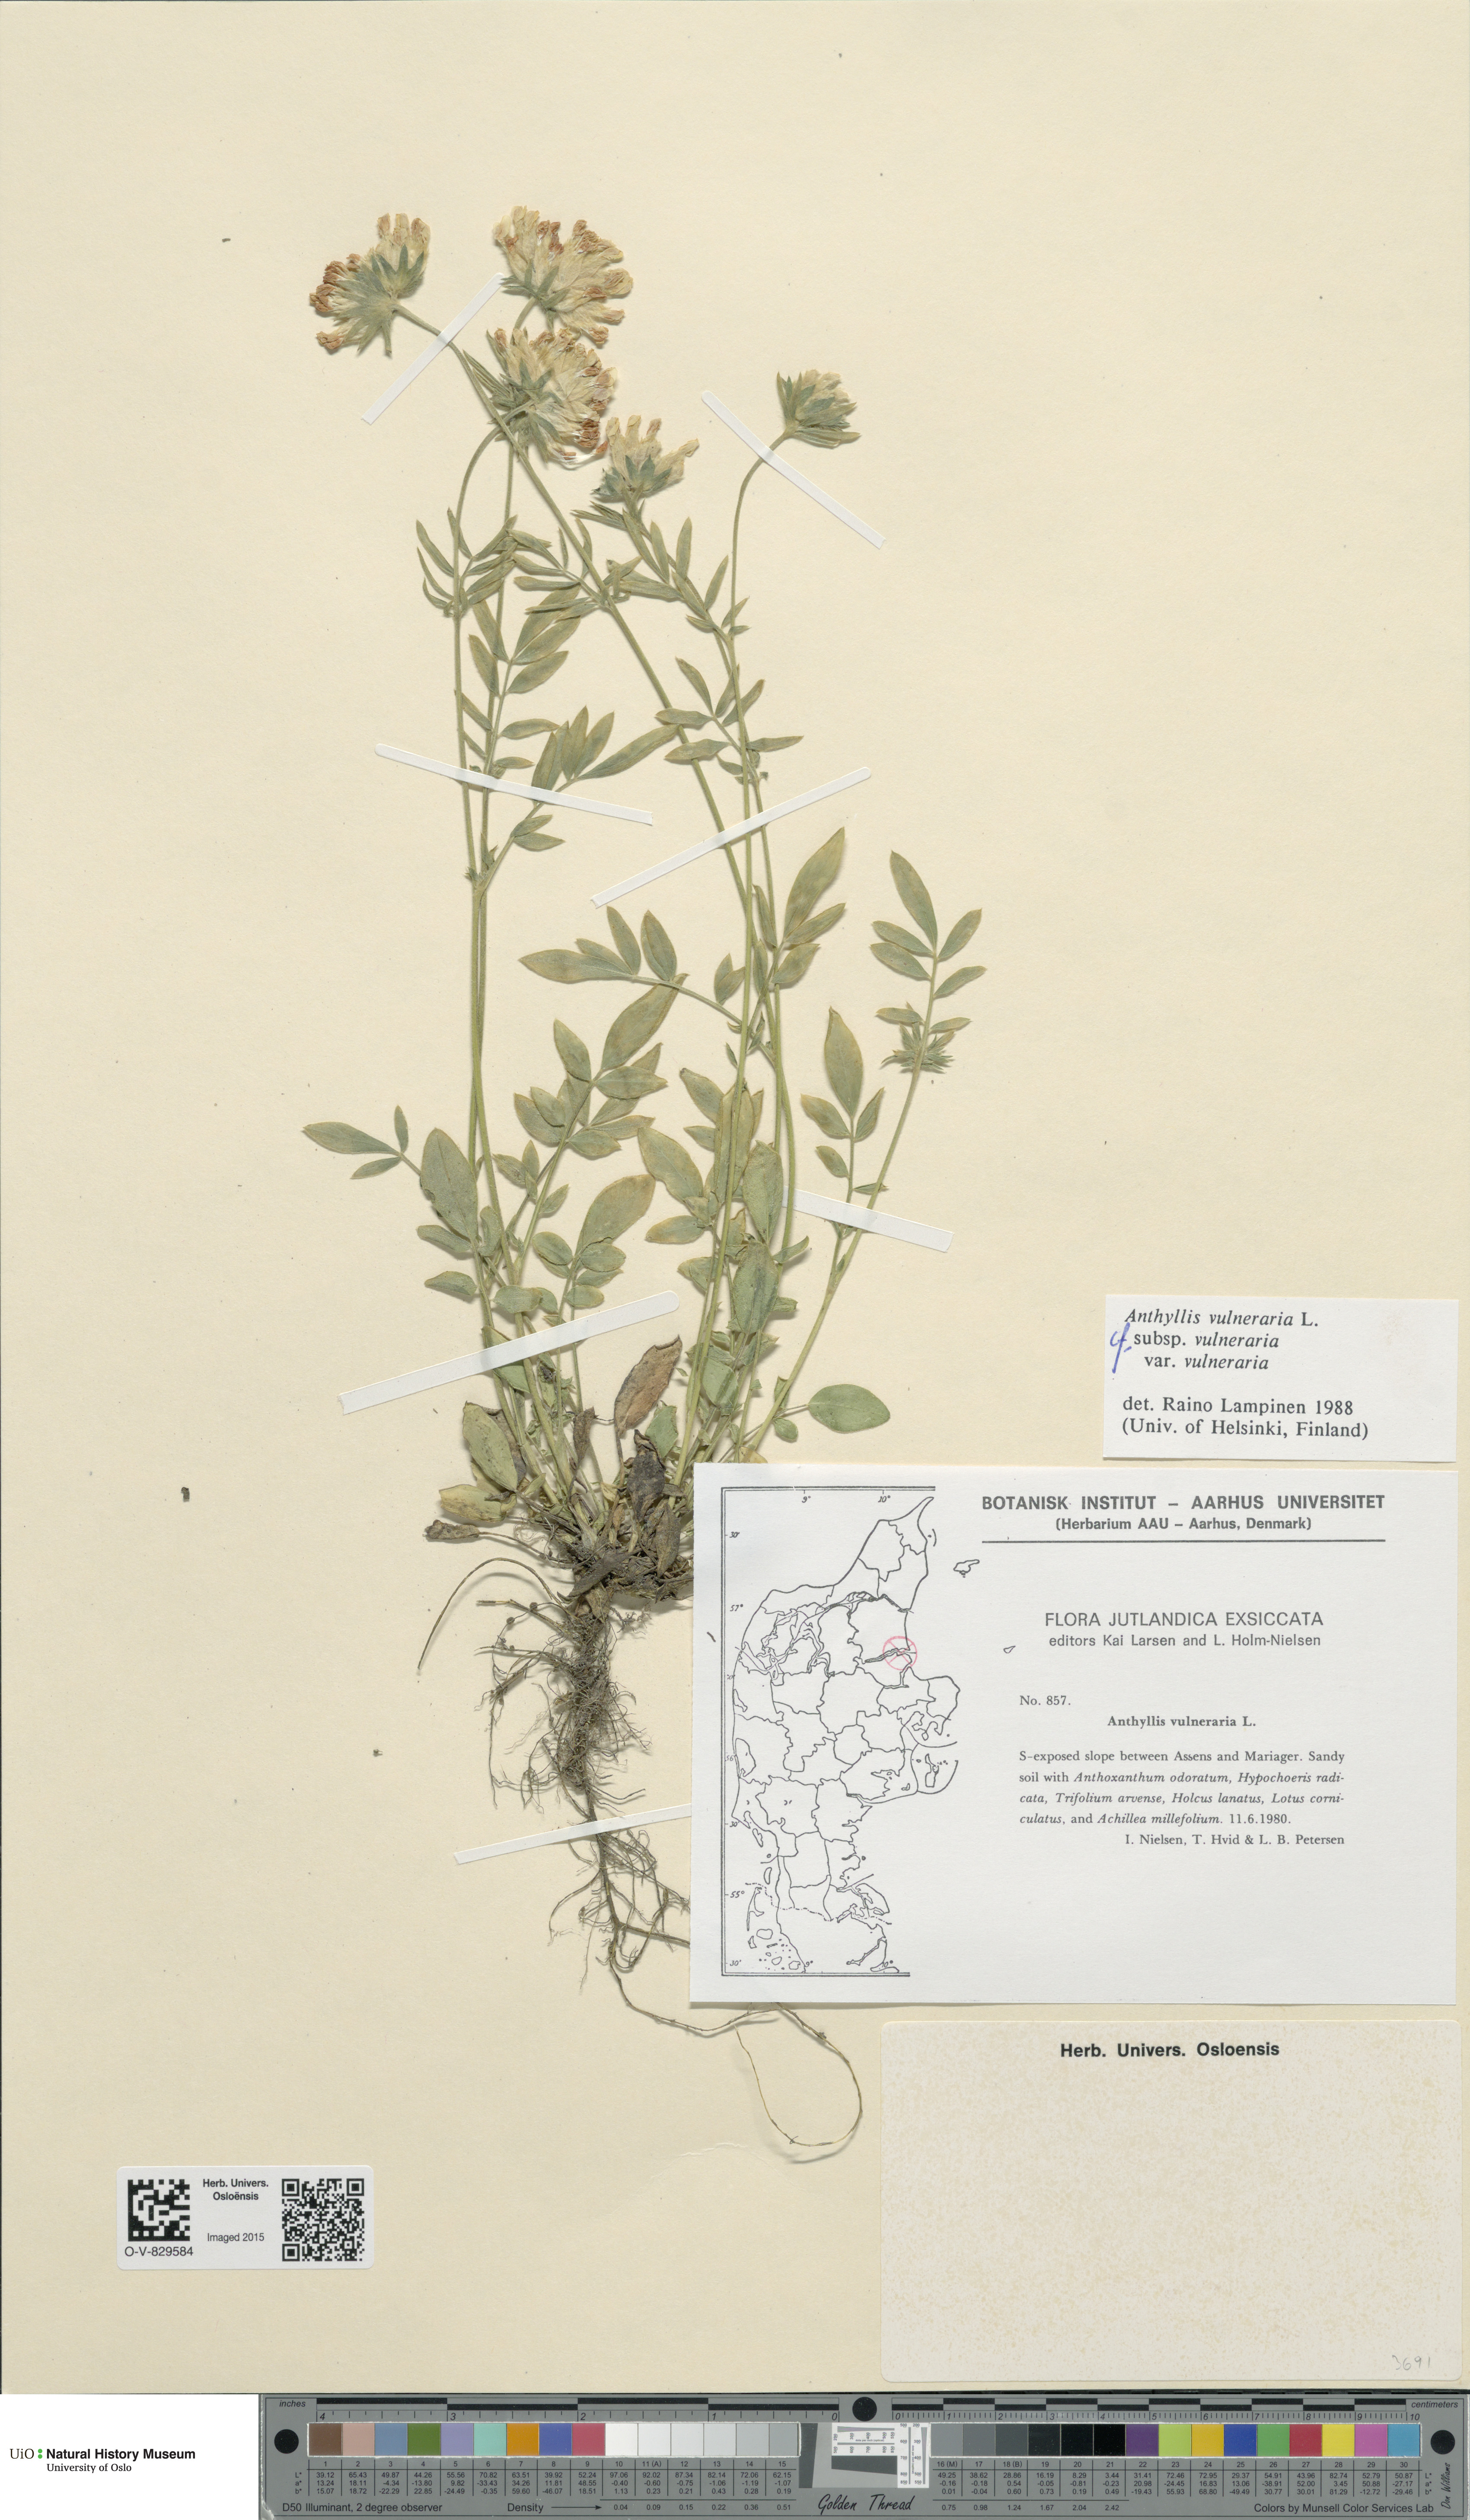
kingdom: Plantae
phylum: Tracheophyta
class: Magnoliopsida
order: Fabales
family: Fabaceae
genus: Anthyllis
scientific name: Anthyllis vulneraria
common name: Kidney vetch
